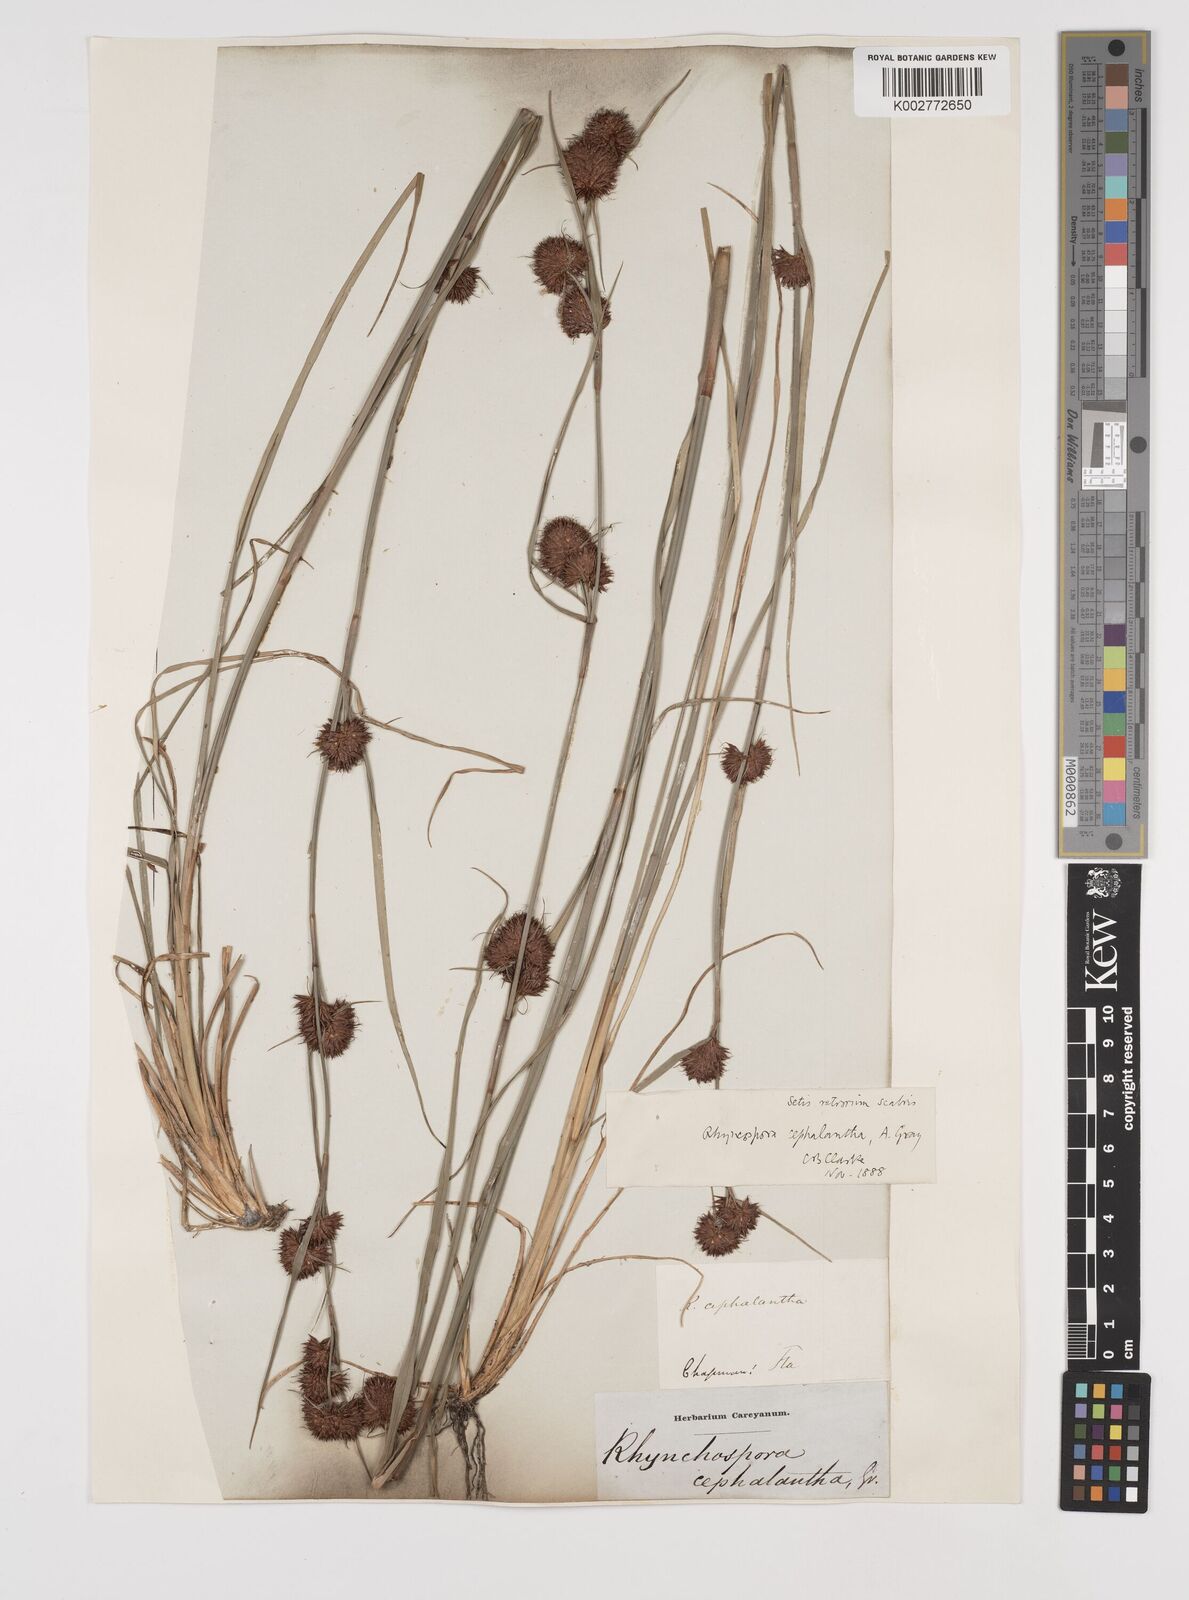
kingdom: Plantae
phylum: Tracheophyta
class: Liliopsida
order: Poales
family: Cyperaceae
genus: Rhynchospora
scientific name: Rhynchospora glomerata
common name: Cluster beak sedge
